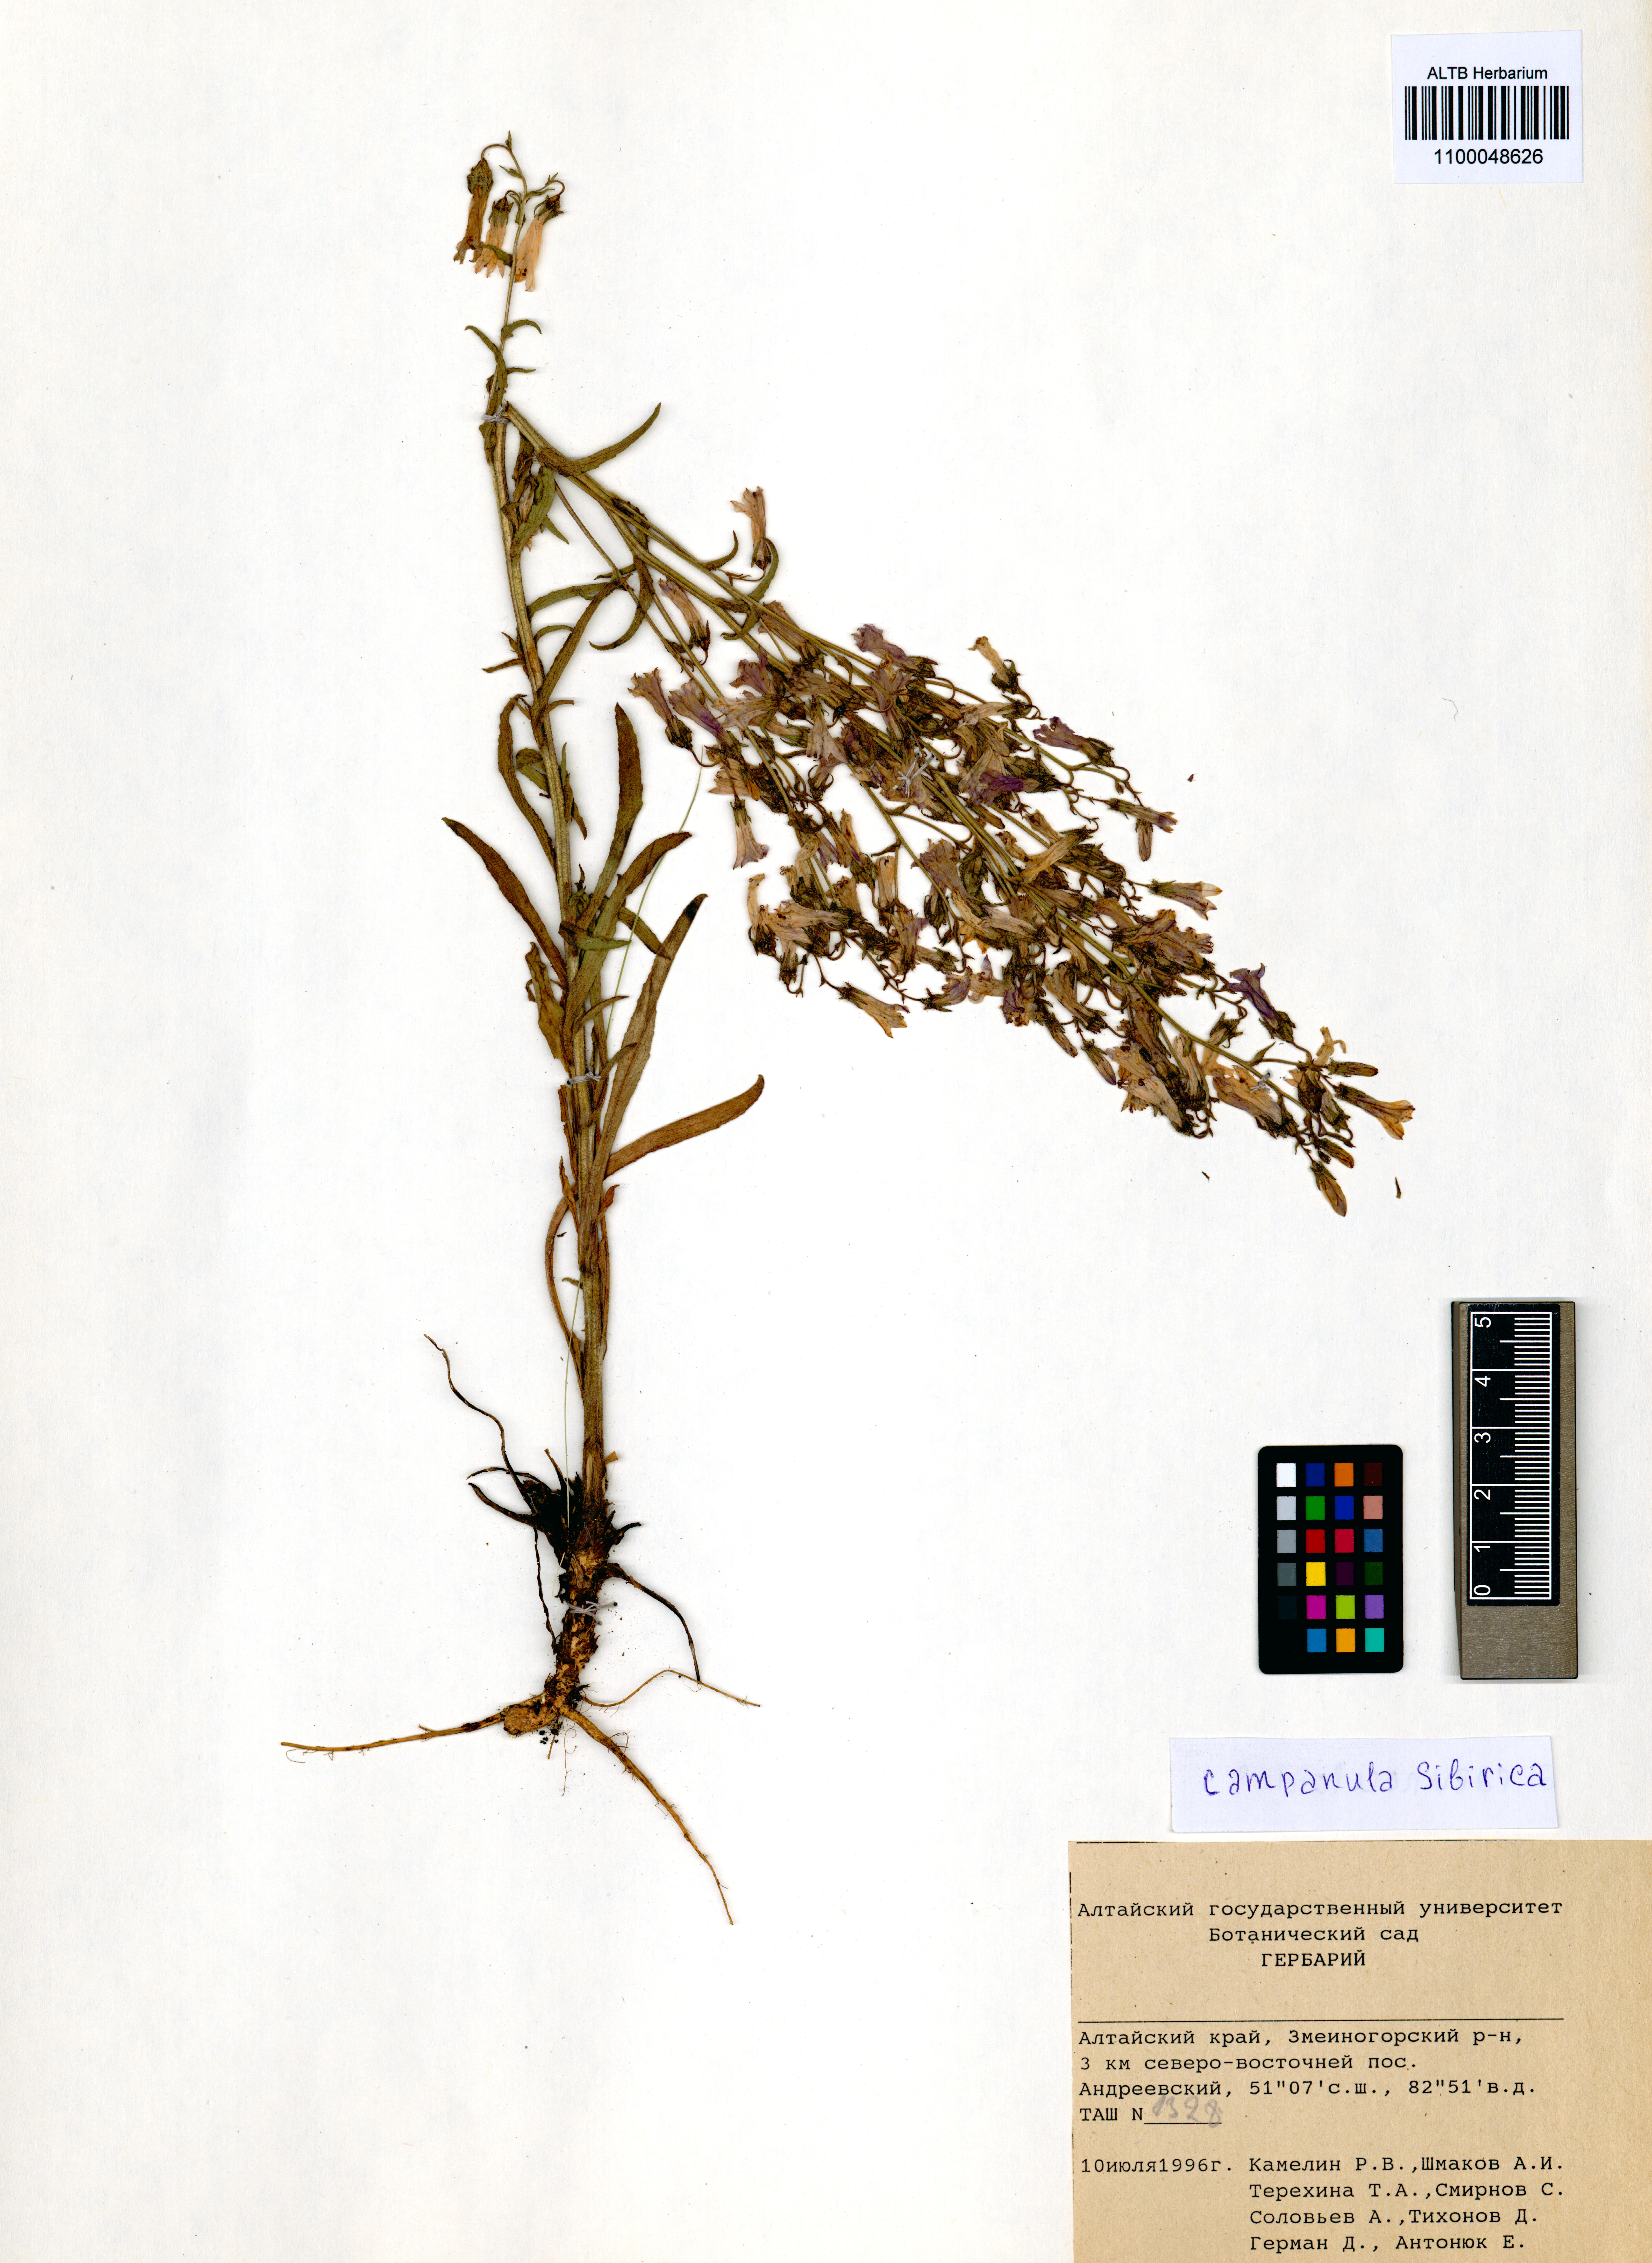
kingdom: Plantae
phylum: Tracheophyta
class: Magnoliopsida
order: Asterales
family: Campanulaceae
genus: Campanula
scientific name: Campanula sibirica
